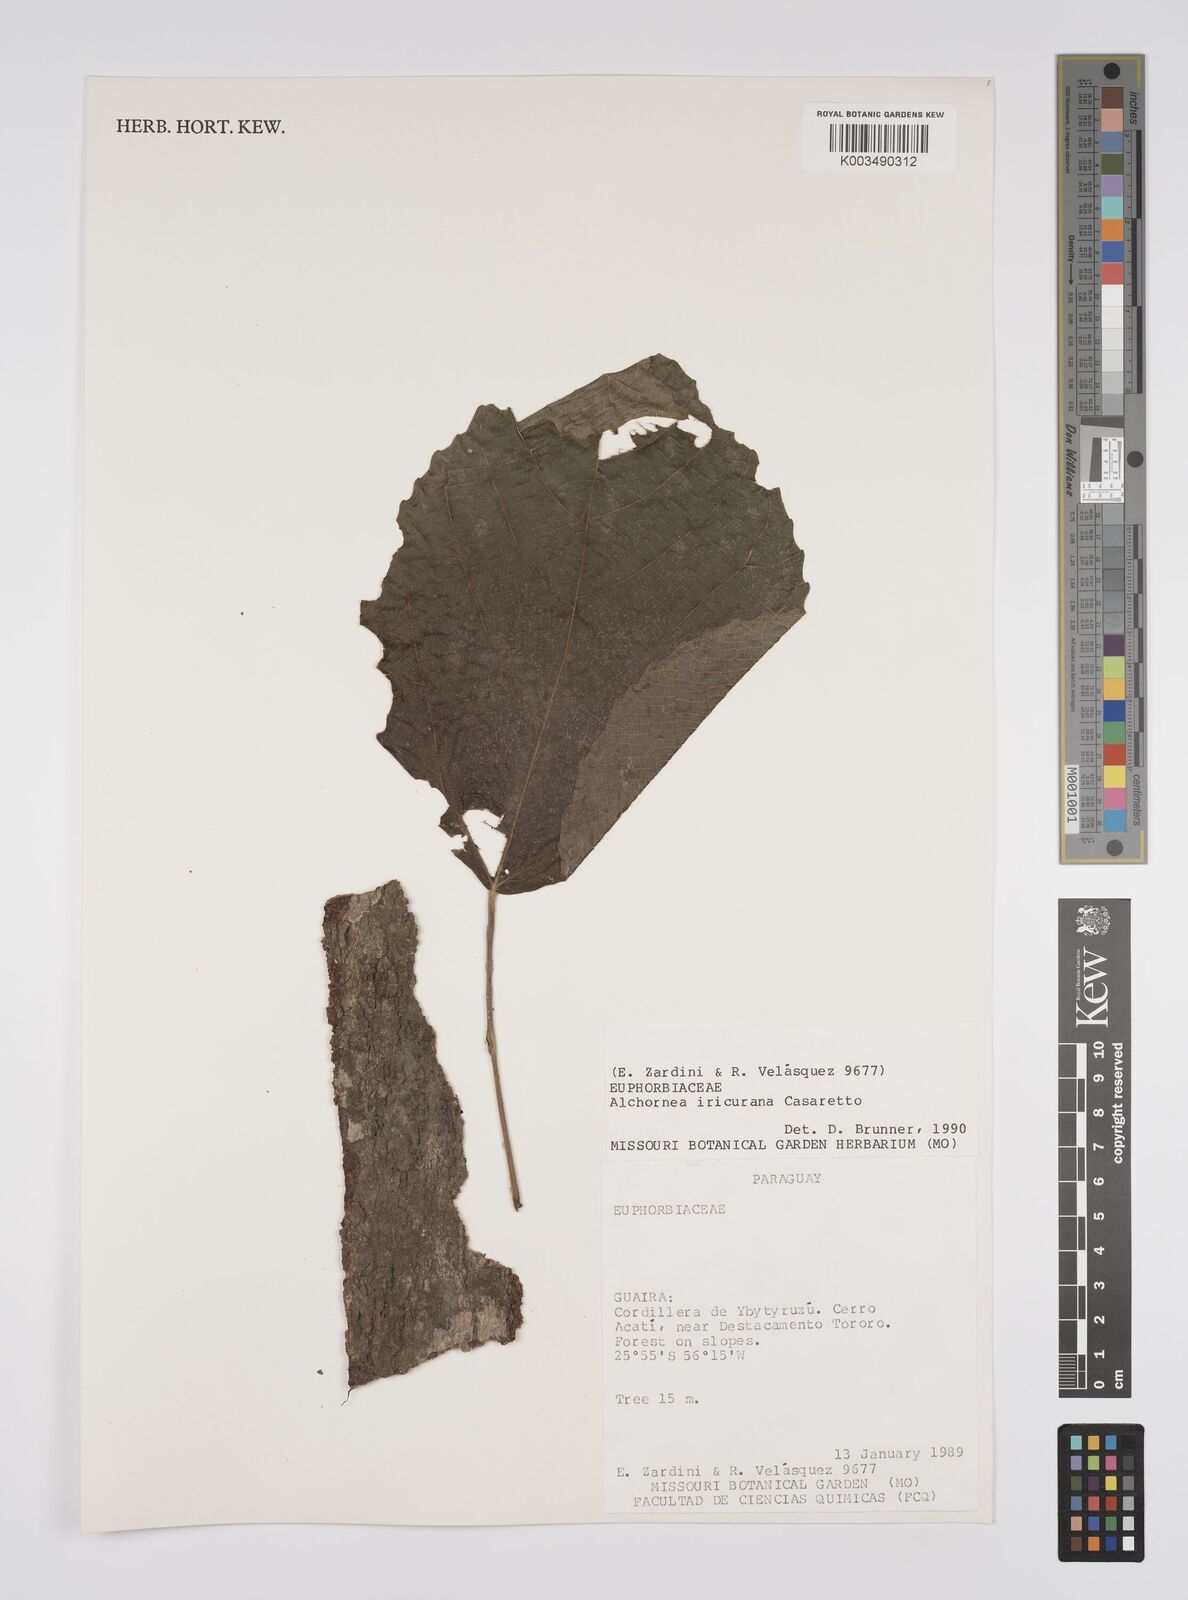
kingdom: Plantae
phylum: Tracheophyta
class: Magnoliopsida
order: Malpighiales
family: Euphorbiaceae
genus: Alchornea
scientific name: Alchornea glandulosa
